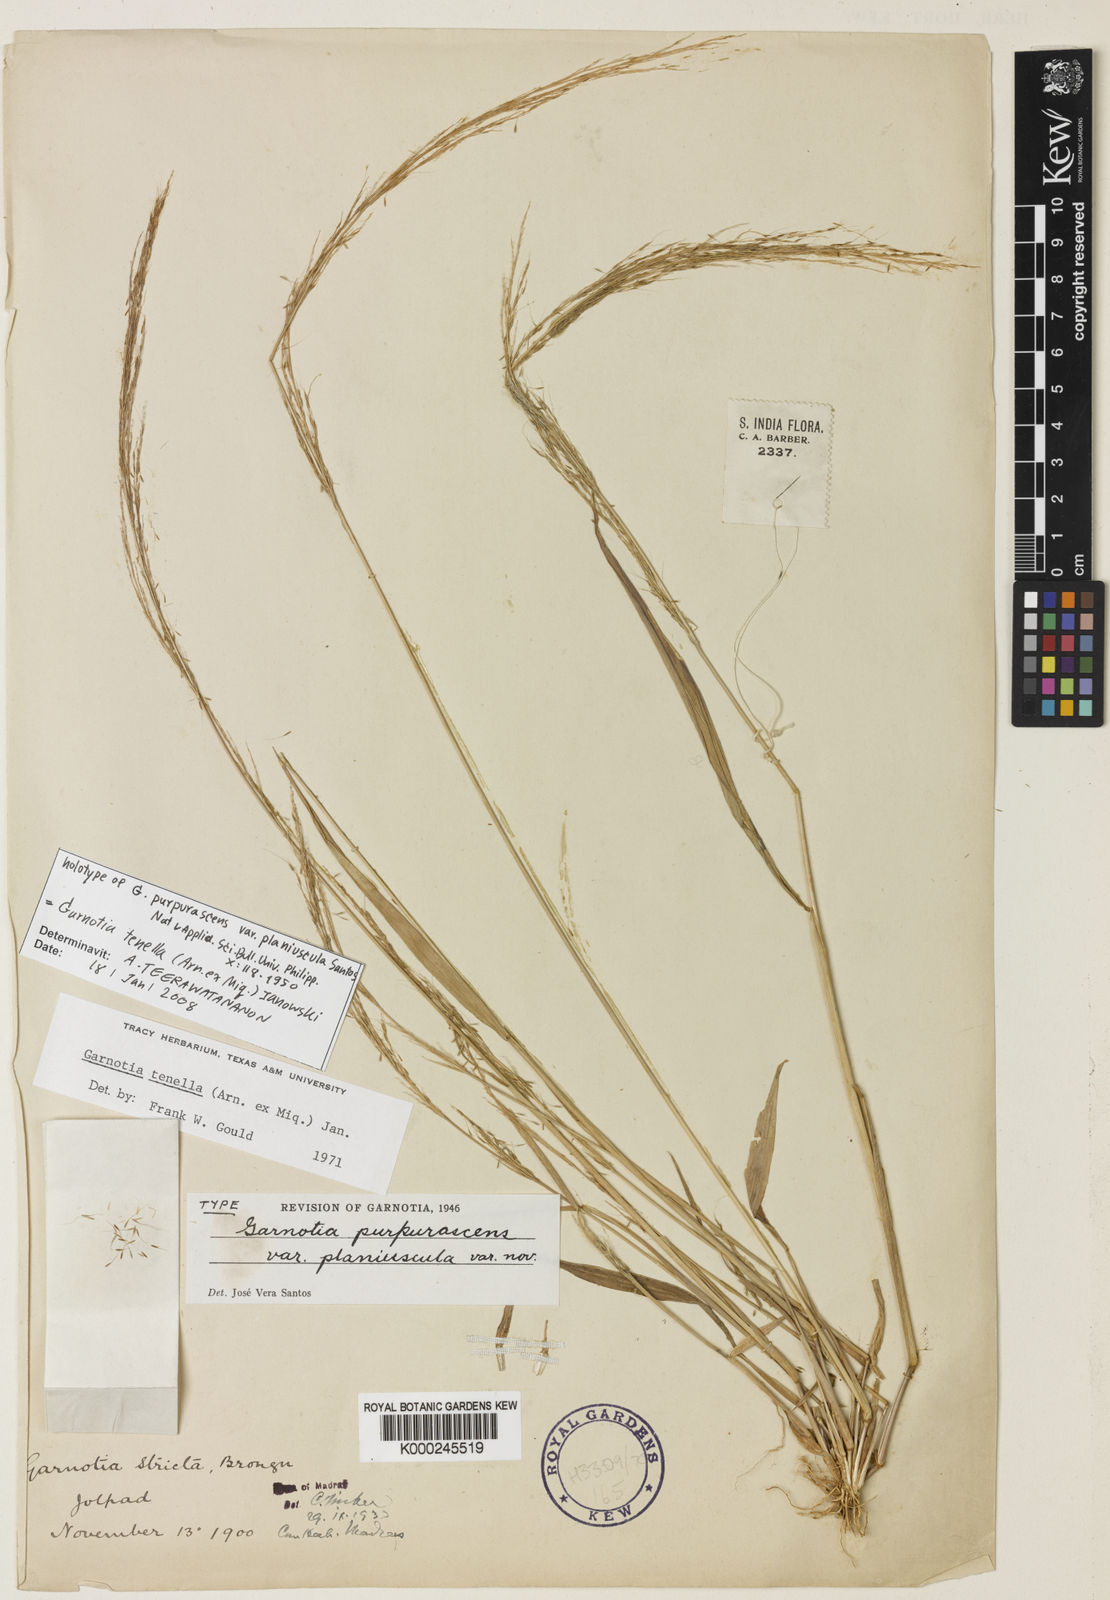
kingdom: Plantae
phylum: Tracheophyta
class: Liliopsida
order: Poales
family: Poaceae
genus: Garnotia
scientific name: Garnotia tenella
